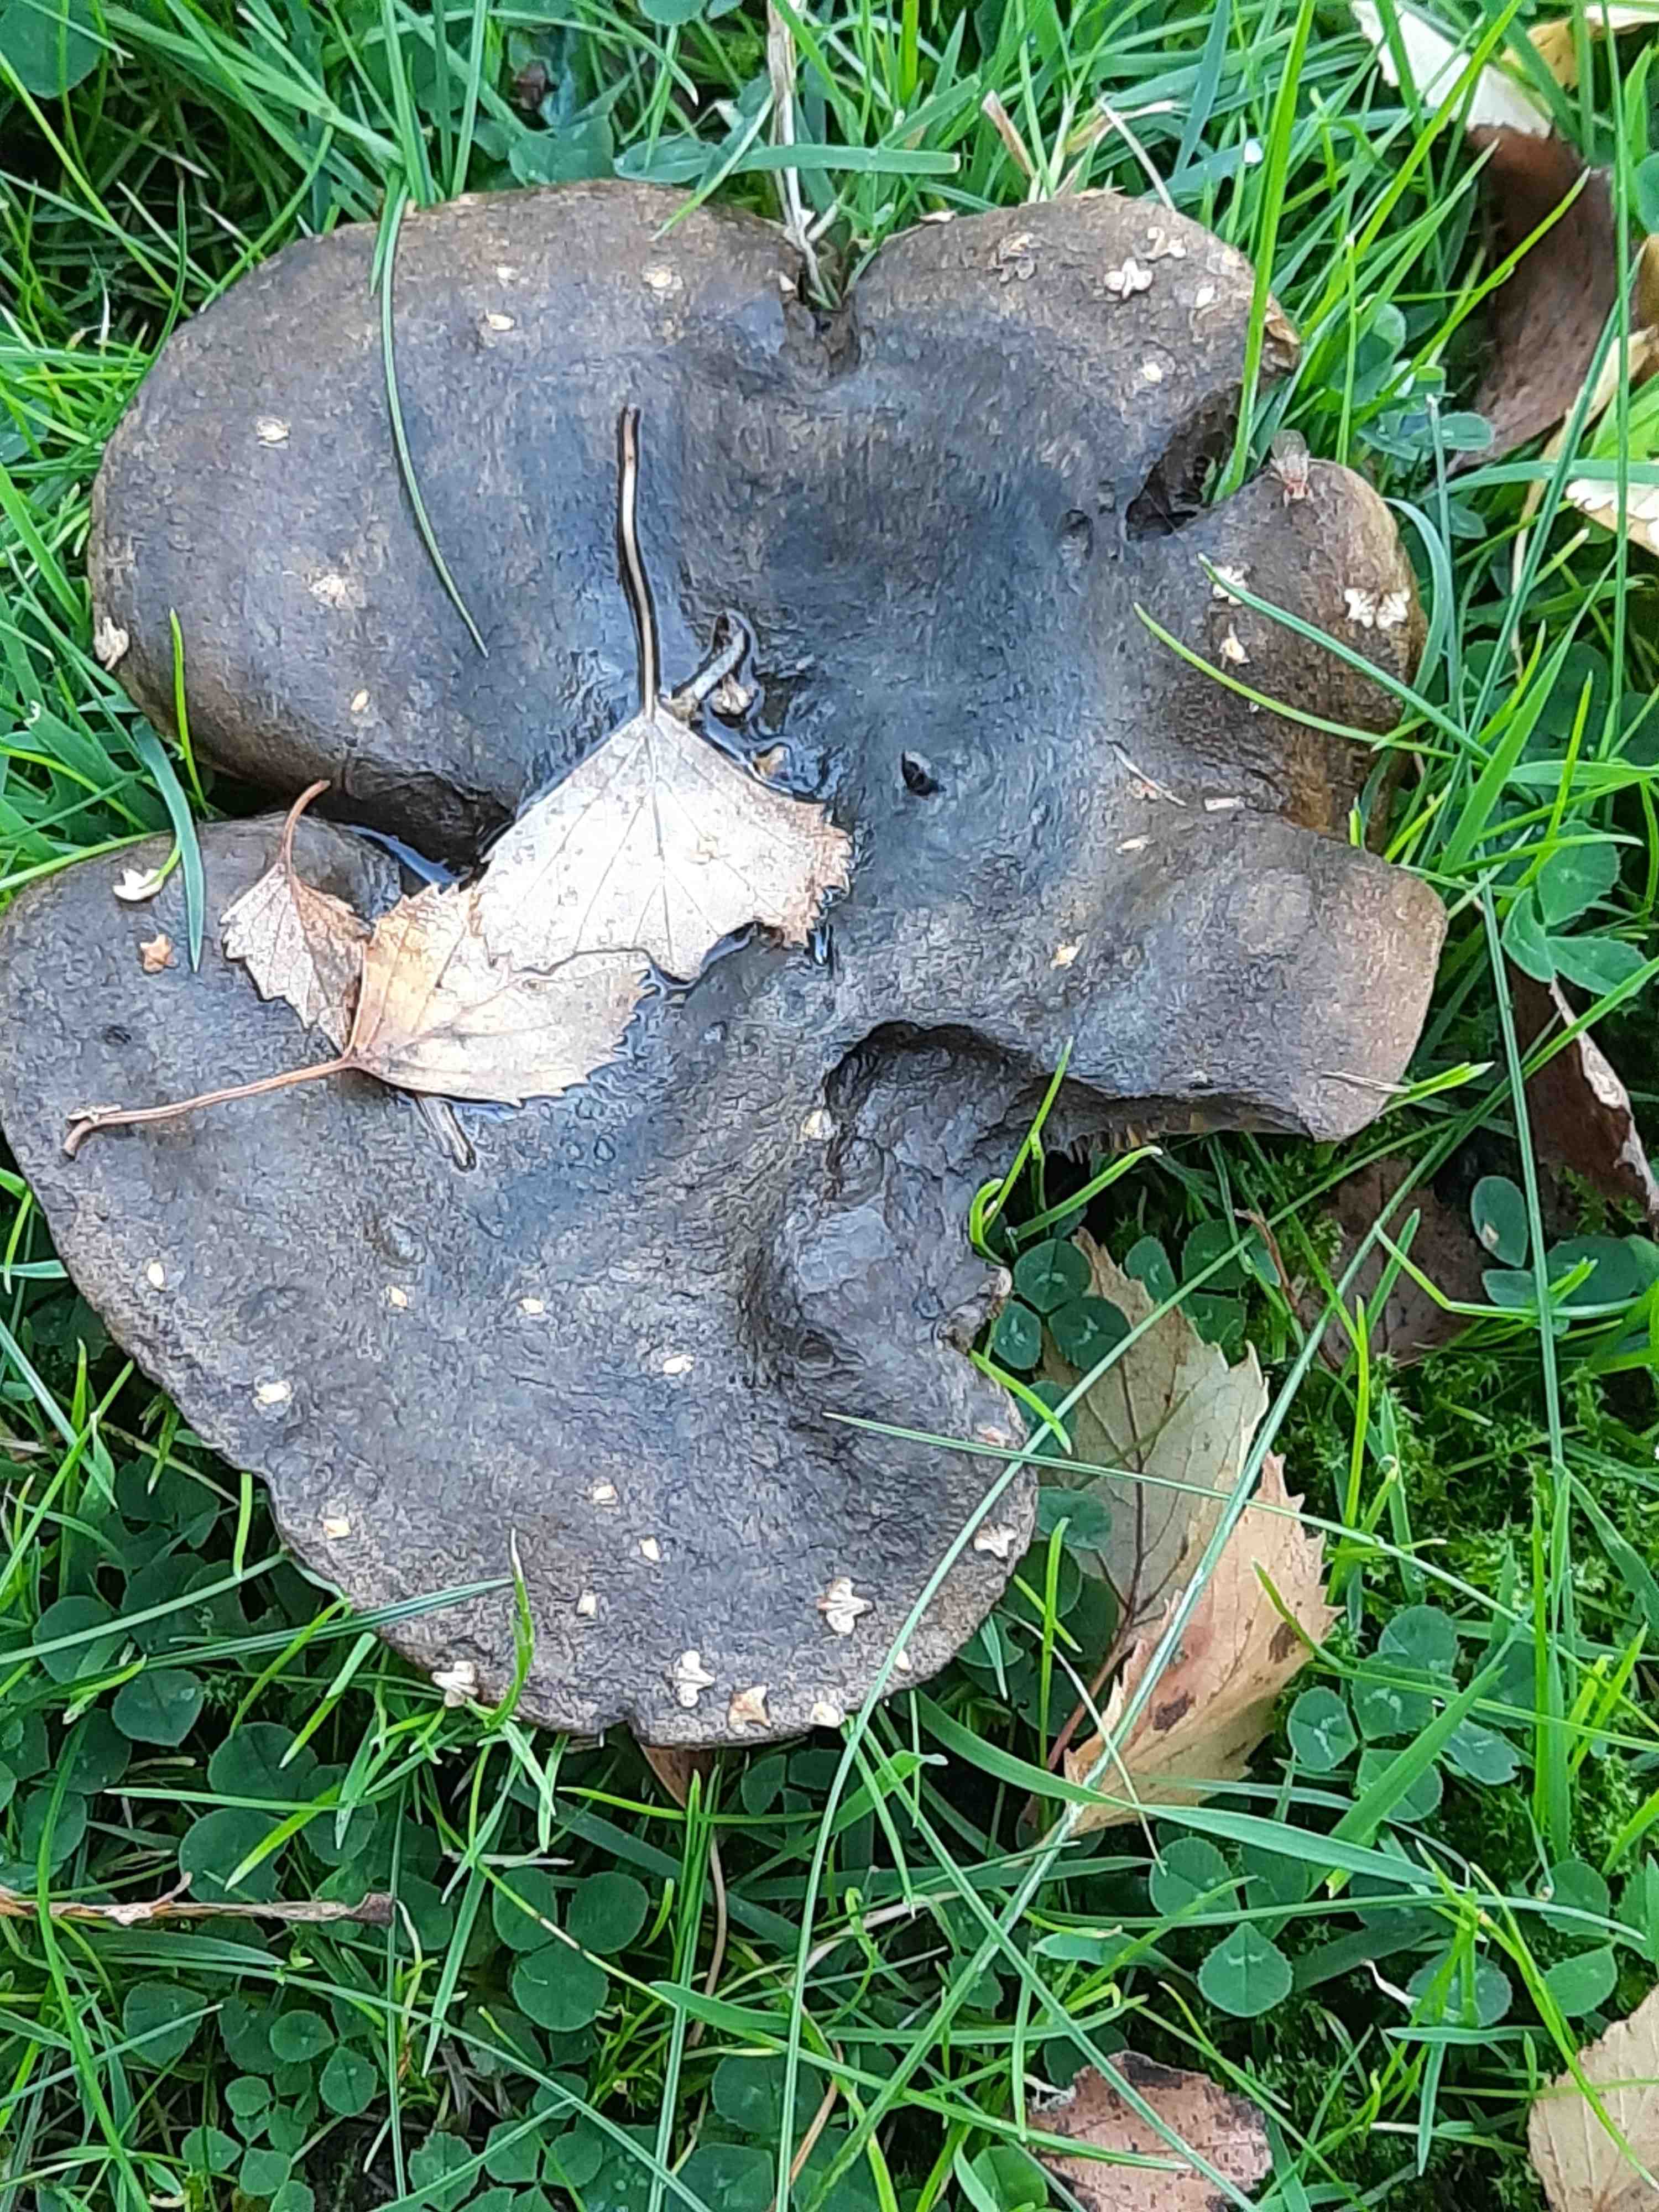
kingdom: Fungi
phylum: Basidiomycota
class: Agaricomycetes
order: Russulales
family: Russulaceae
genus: Lactarius
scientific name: Lactarius necator
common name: manddraber-mælkehat
